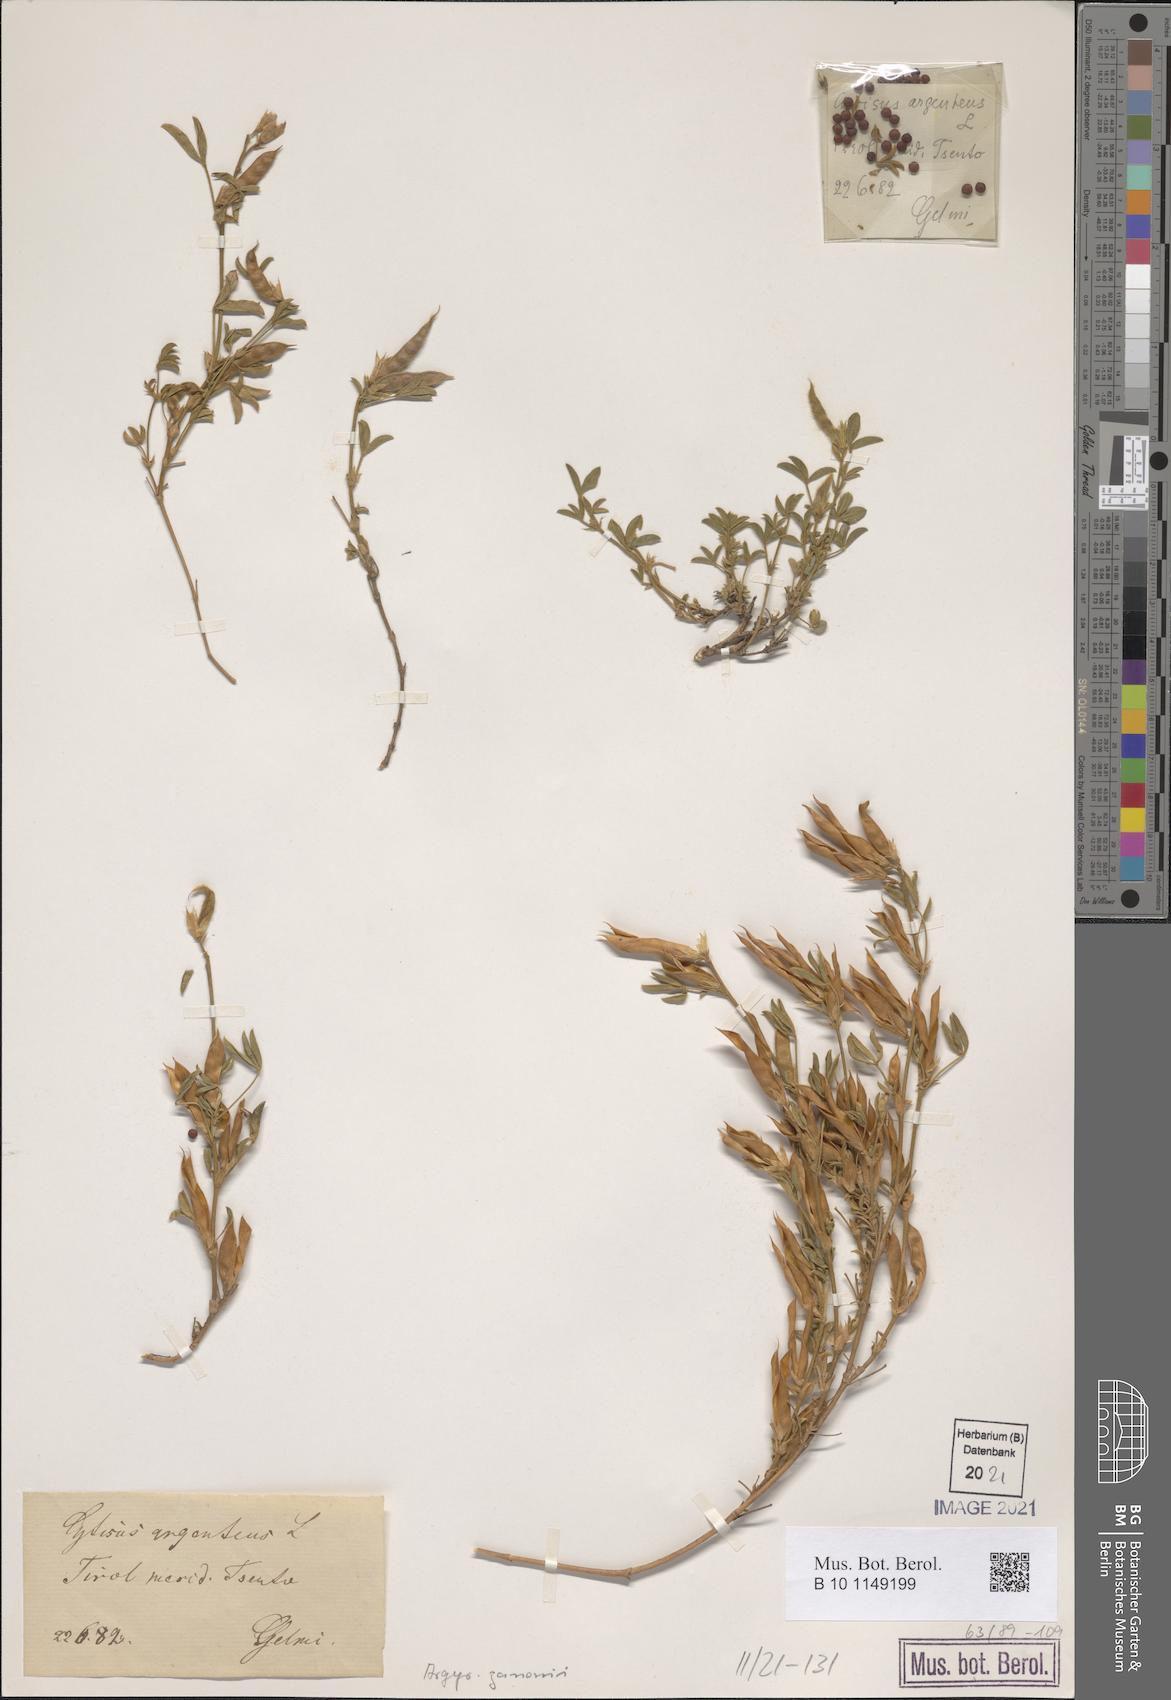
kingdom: Plantae
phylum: Tracheophyta
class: Magnoliopsida
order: Fabales
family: Fabaceae
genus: Argyrolobium
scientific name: Argyrolobium zanonii
